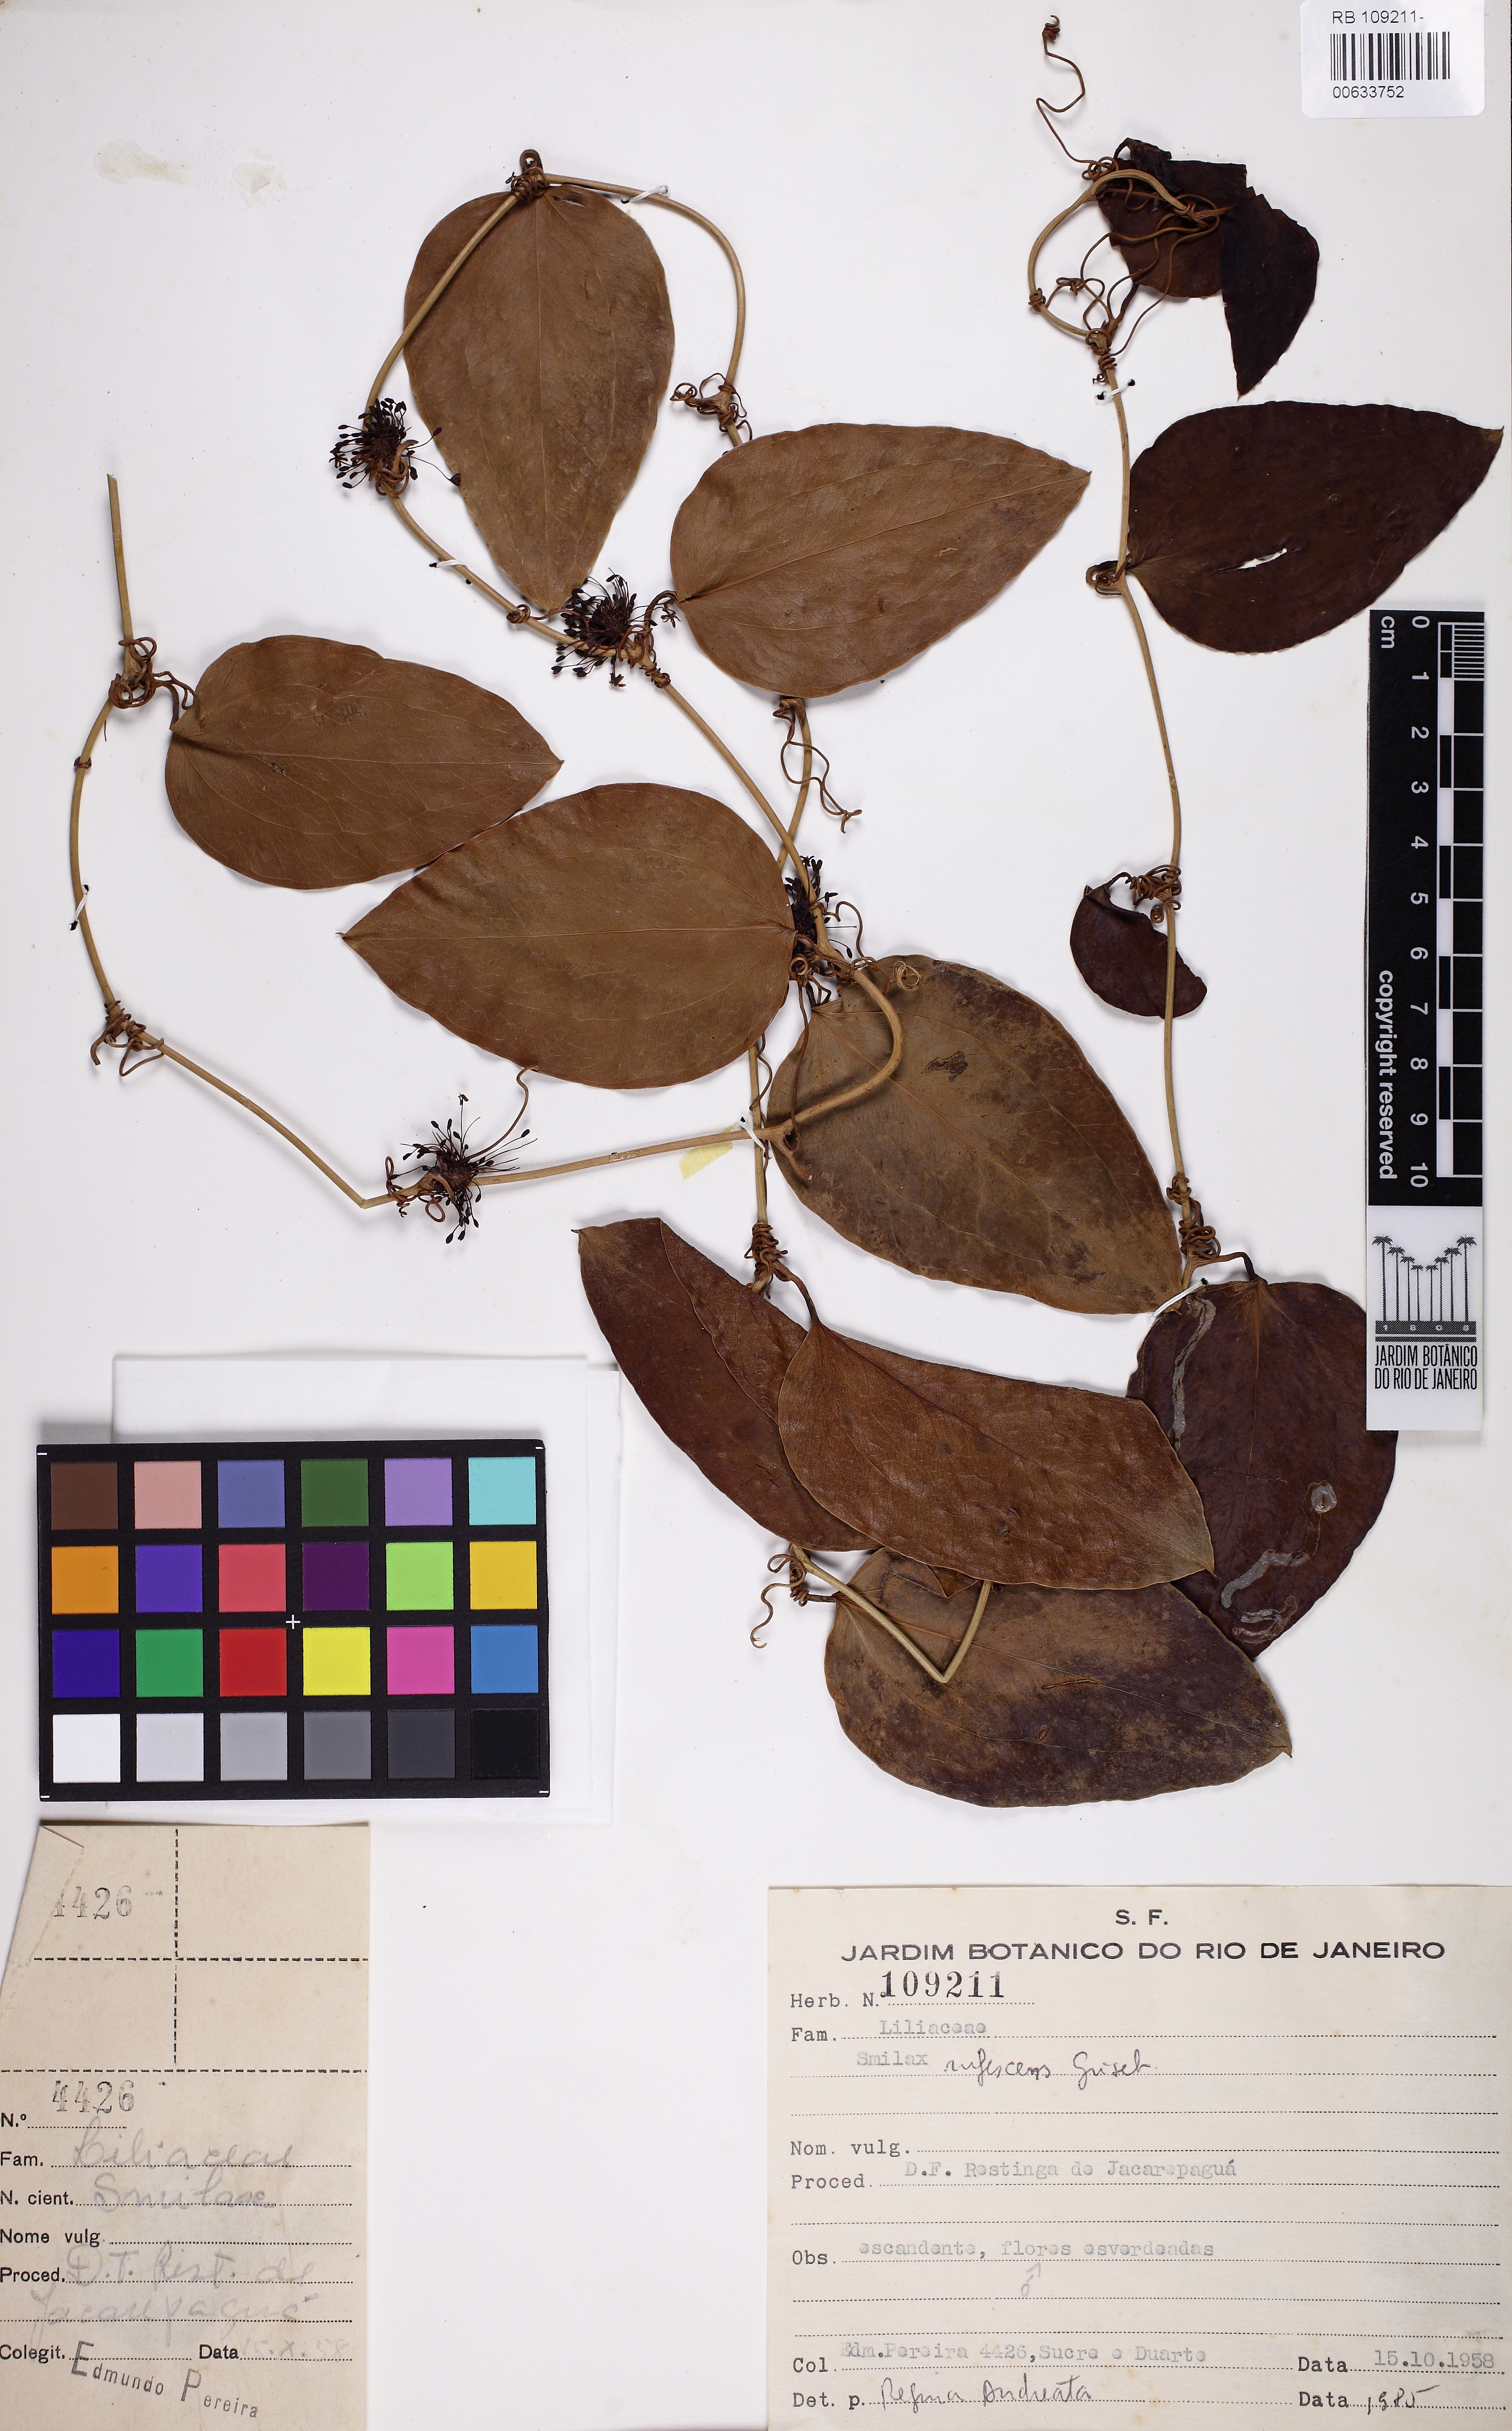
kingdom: Plantae
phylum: Tracheophyta
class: Liliopsida
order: Liliales
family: Smilacaceae
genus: Smilax
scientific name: Smilax rufescens
